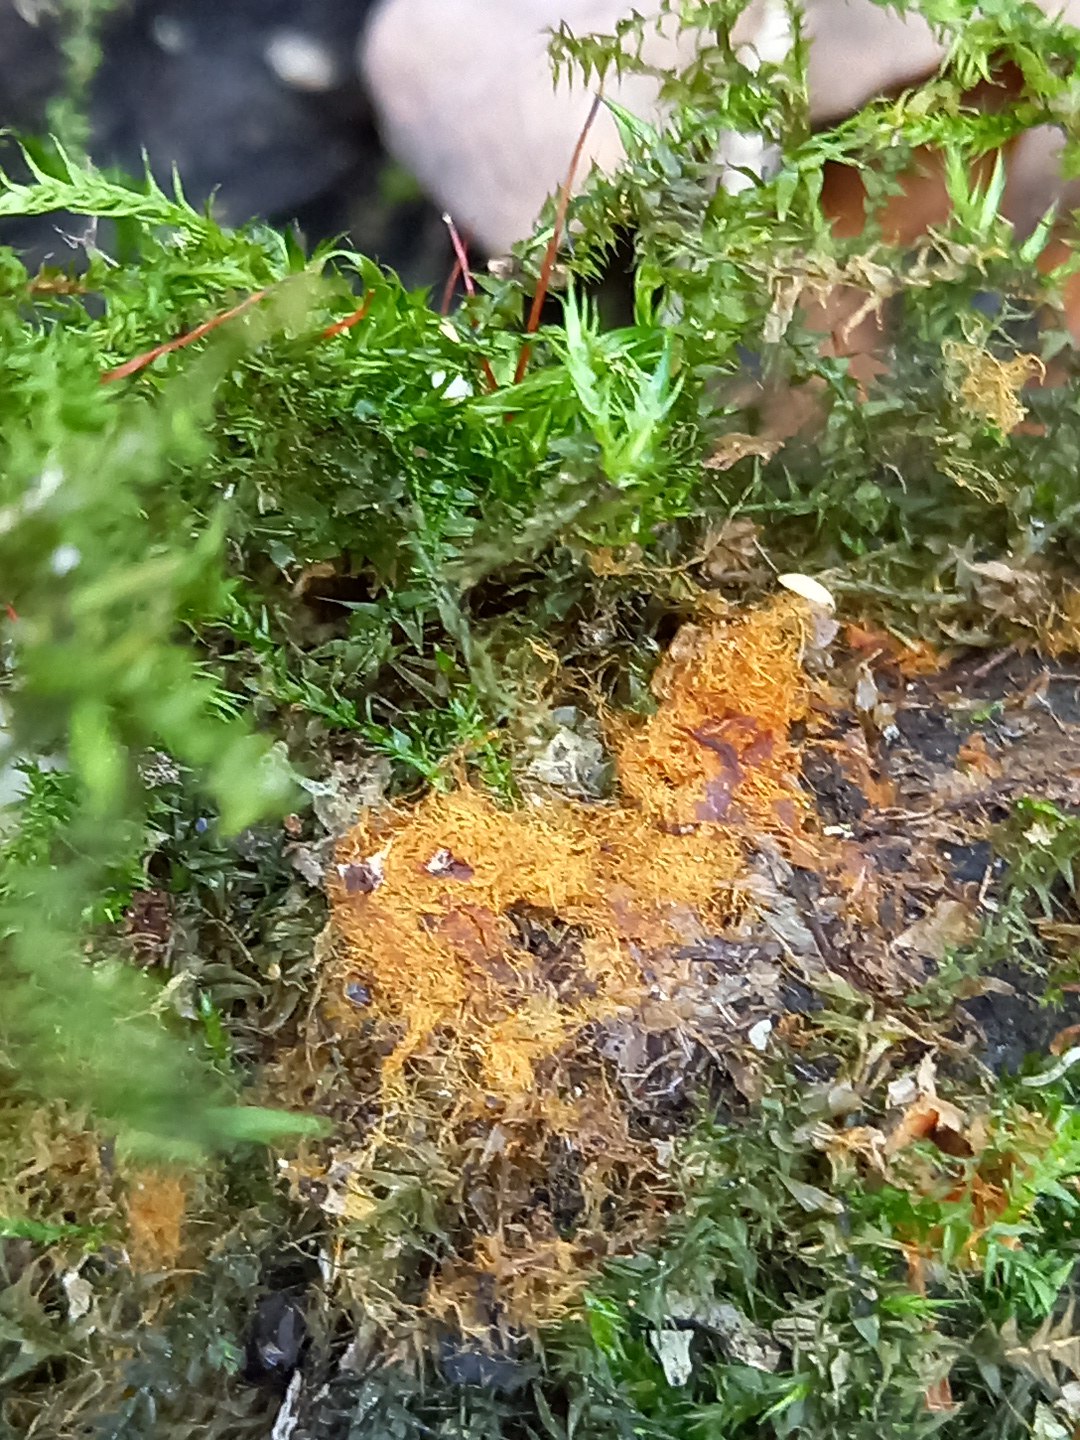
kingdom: Fungi
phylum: Basidiomycota
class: Agaricomycetes
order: Agaricales
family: Psathyrellaceae
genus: Coprinellus
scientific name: Coprinellus
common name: blækhat
